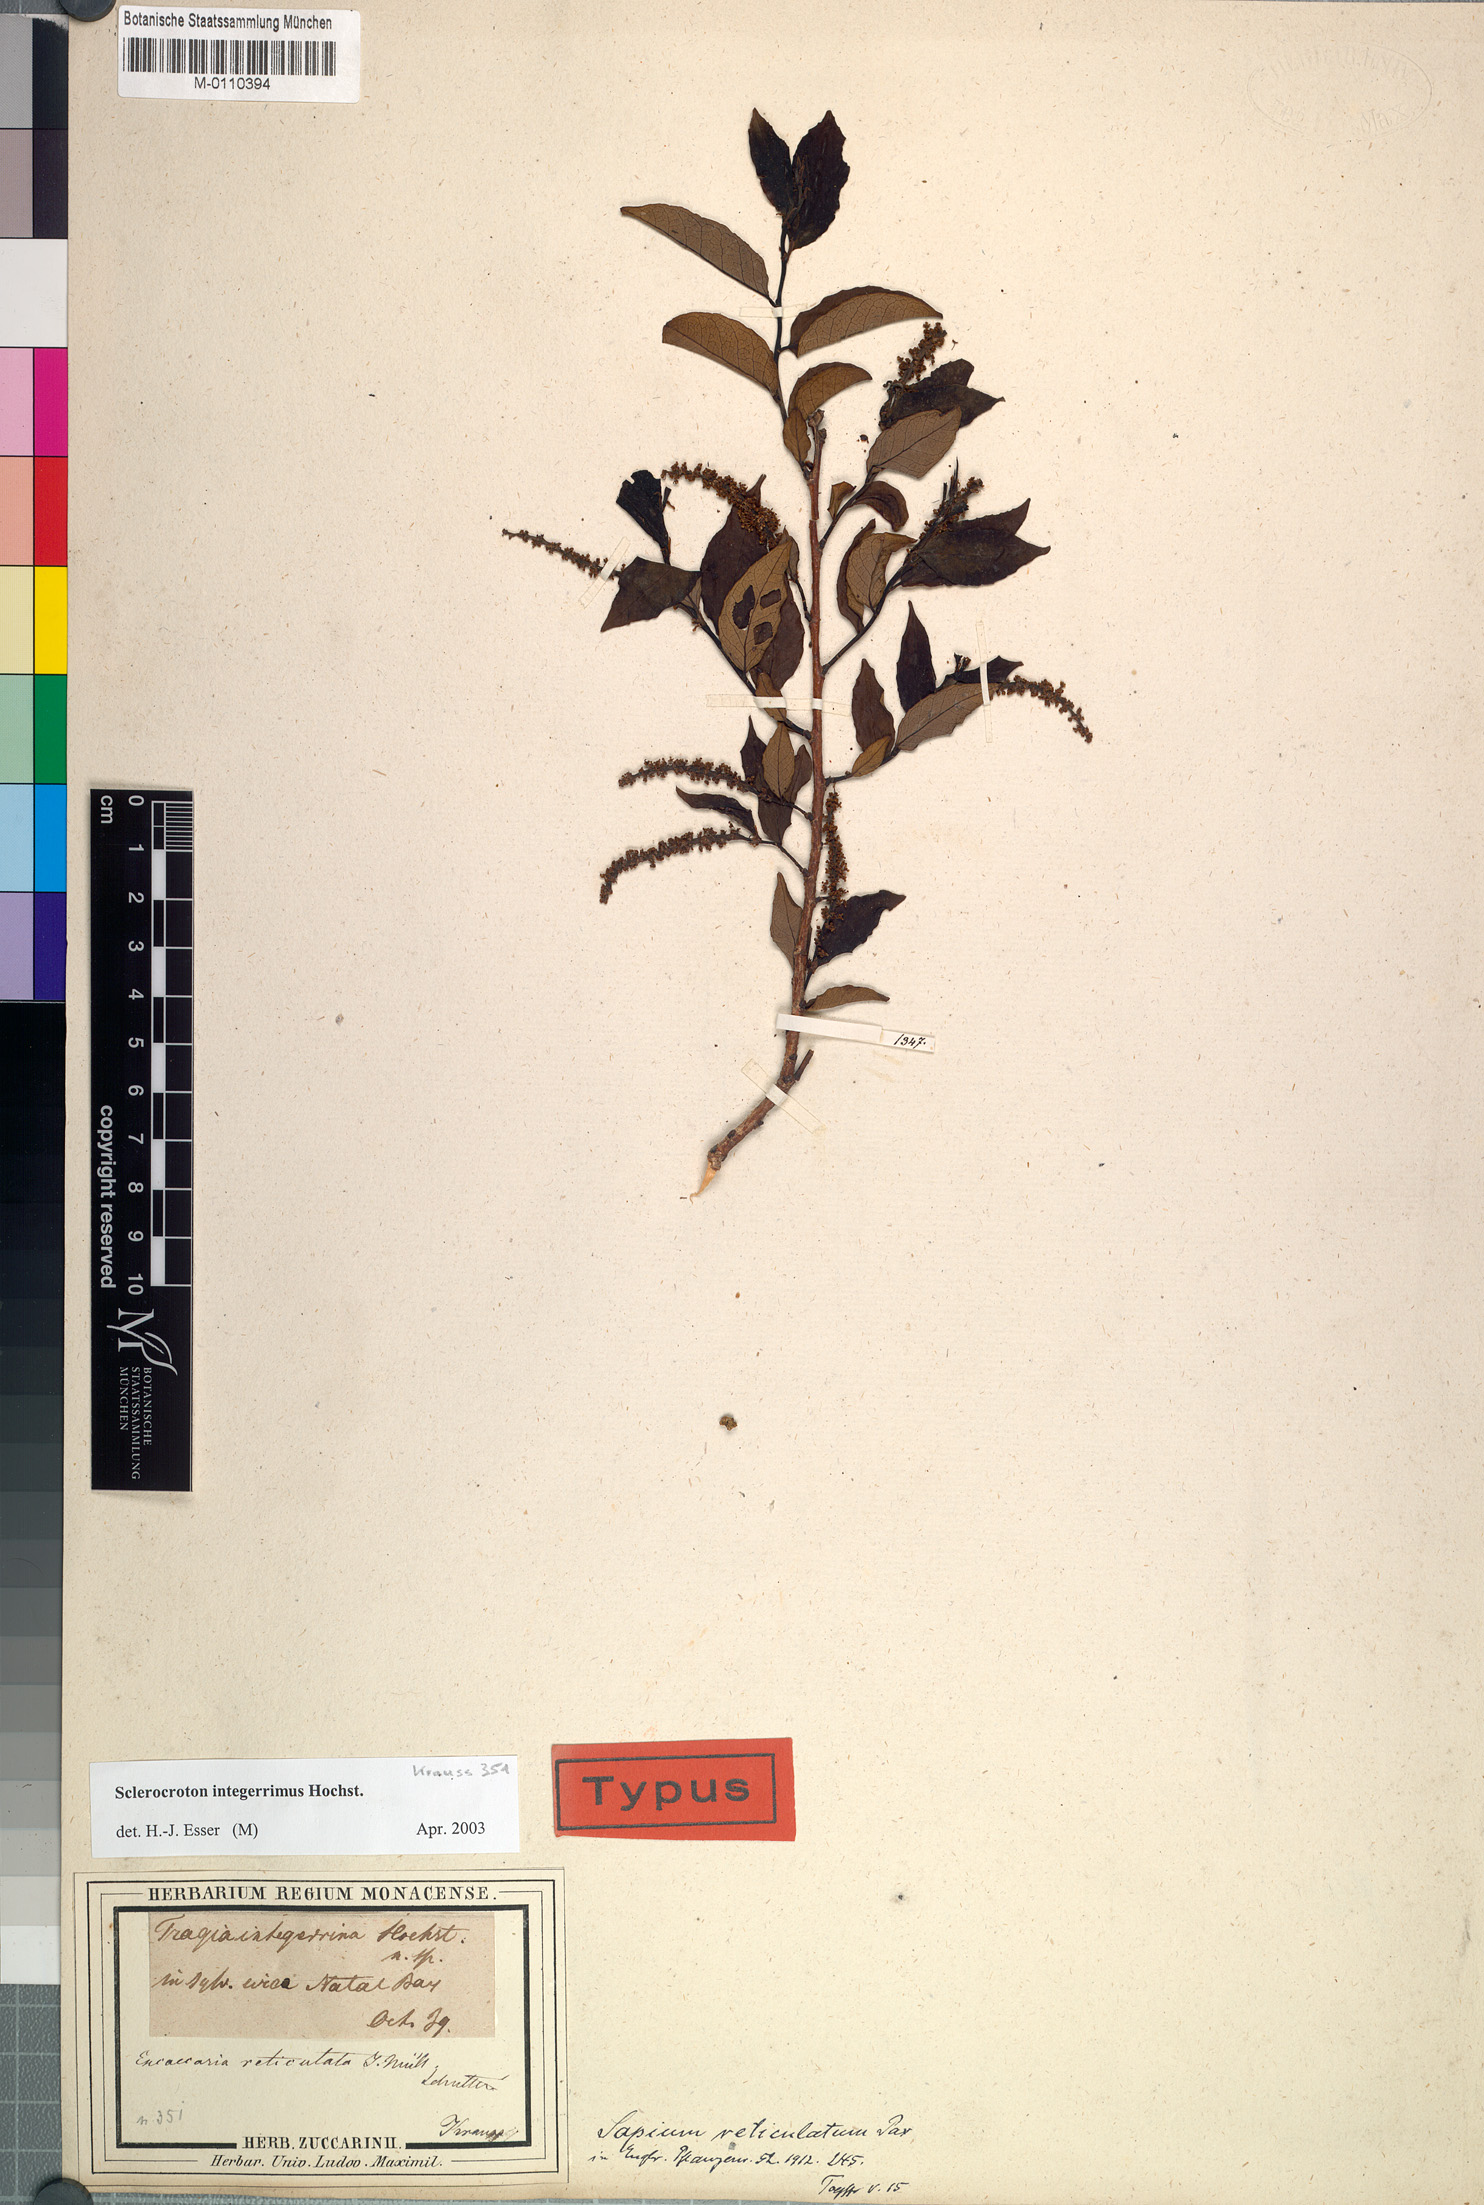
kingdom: Plantae
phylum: Tracheophyta
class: Magnoliopsida
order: Malpighiales
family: Euphorbiaceae
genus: Sclerocroton
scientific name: Sclerocroton integerrimus
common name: Duiker berry
